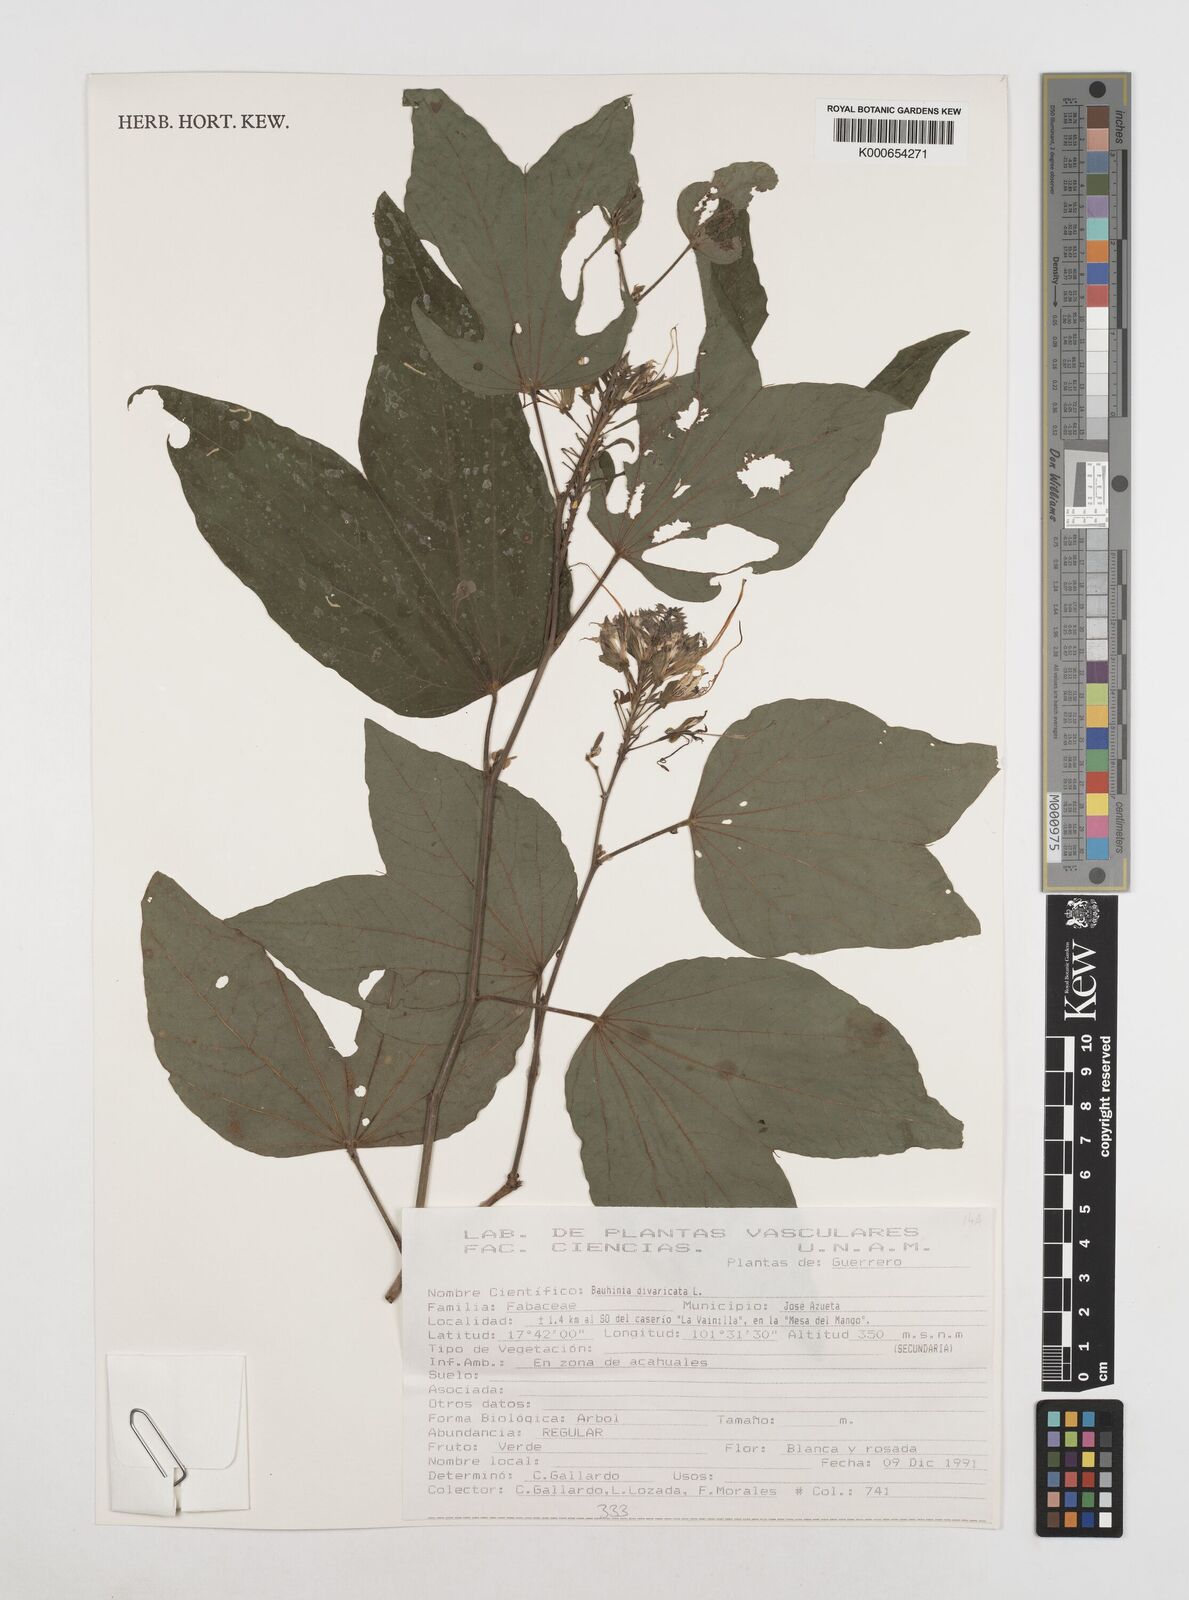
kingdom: Plantae
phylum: Tracheophyta
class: Magnoliopsida
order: Fabales
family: Fabaceae
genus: Bauhinia
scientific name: Bauhinia divaricata
